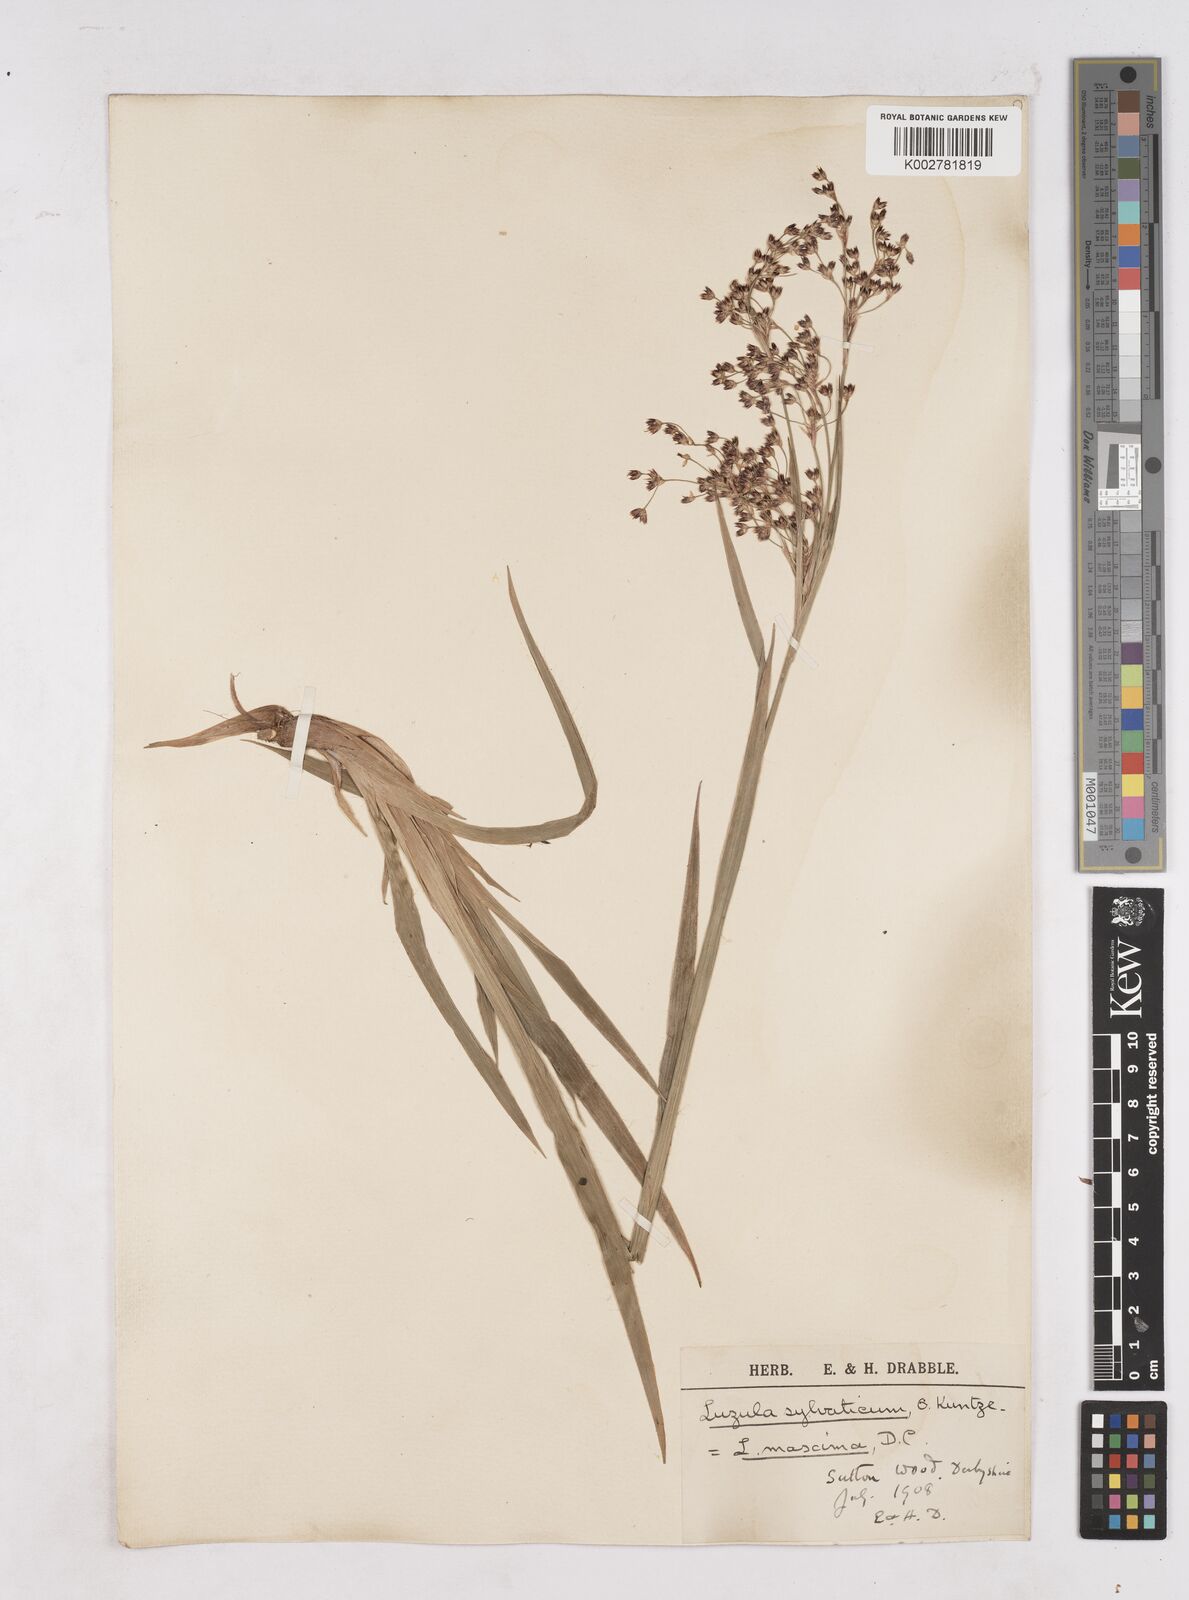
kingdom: Plantae
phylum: Tracheophyta
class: Liliopsida
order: Poales
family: Juncaceae
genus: Luzula
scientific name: Luzula sylvatica
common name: Great wood-rush
